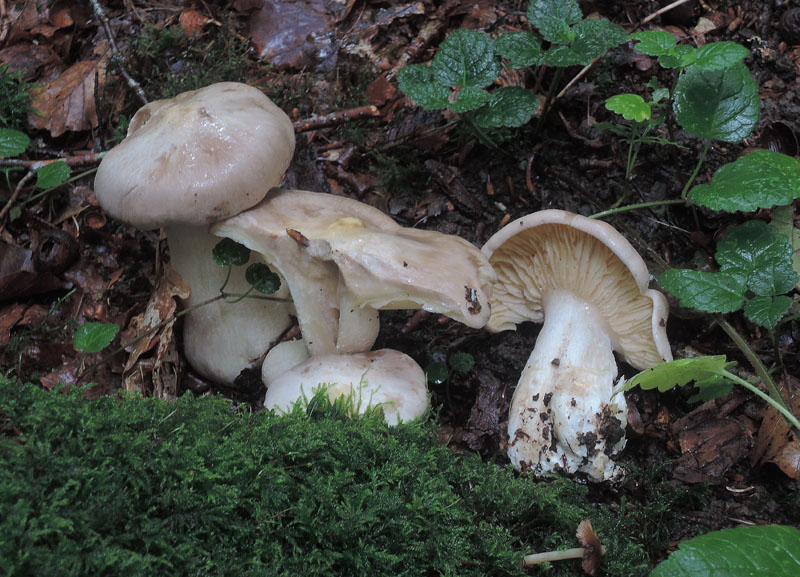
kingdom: Fungi
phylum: Basidiomycota
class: Agaricomycetes
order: Agaricales
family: Entolomataceae
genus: Entoloma
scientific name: Entoloma sinuatum
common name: giftig rødblad
